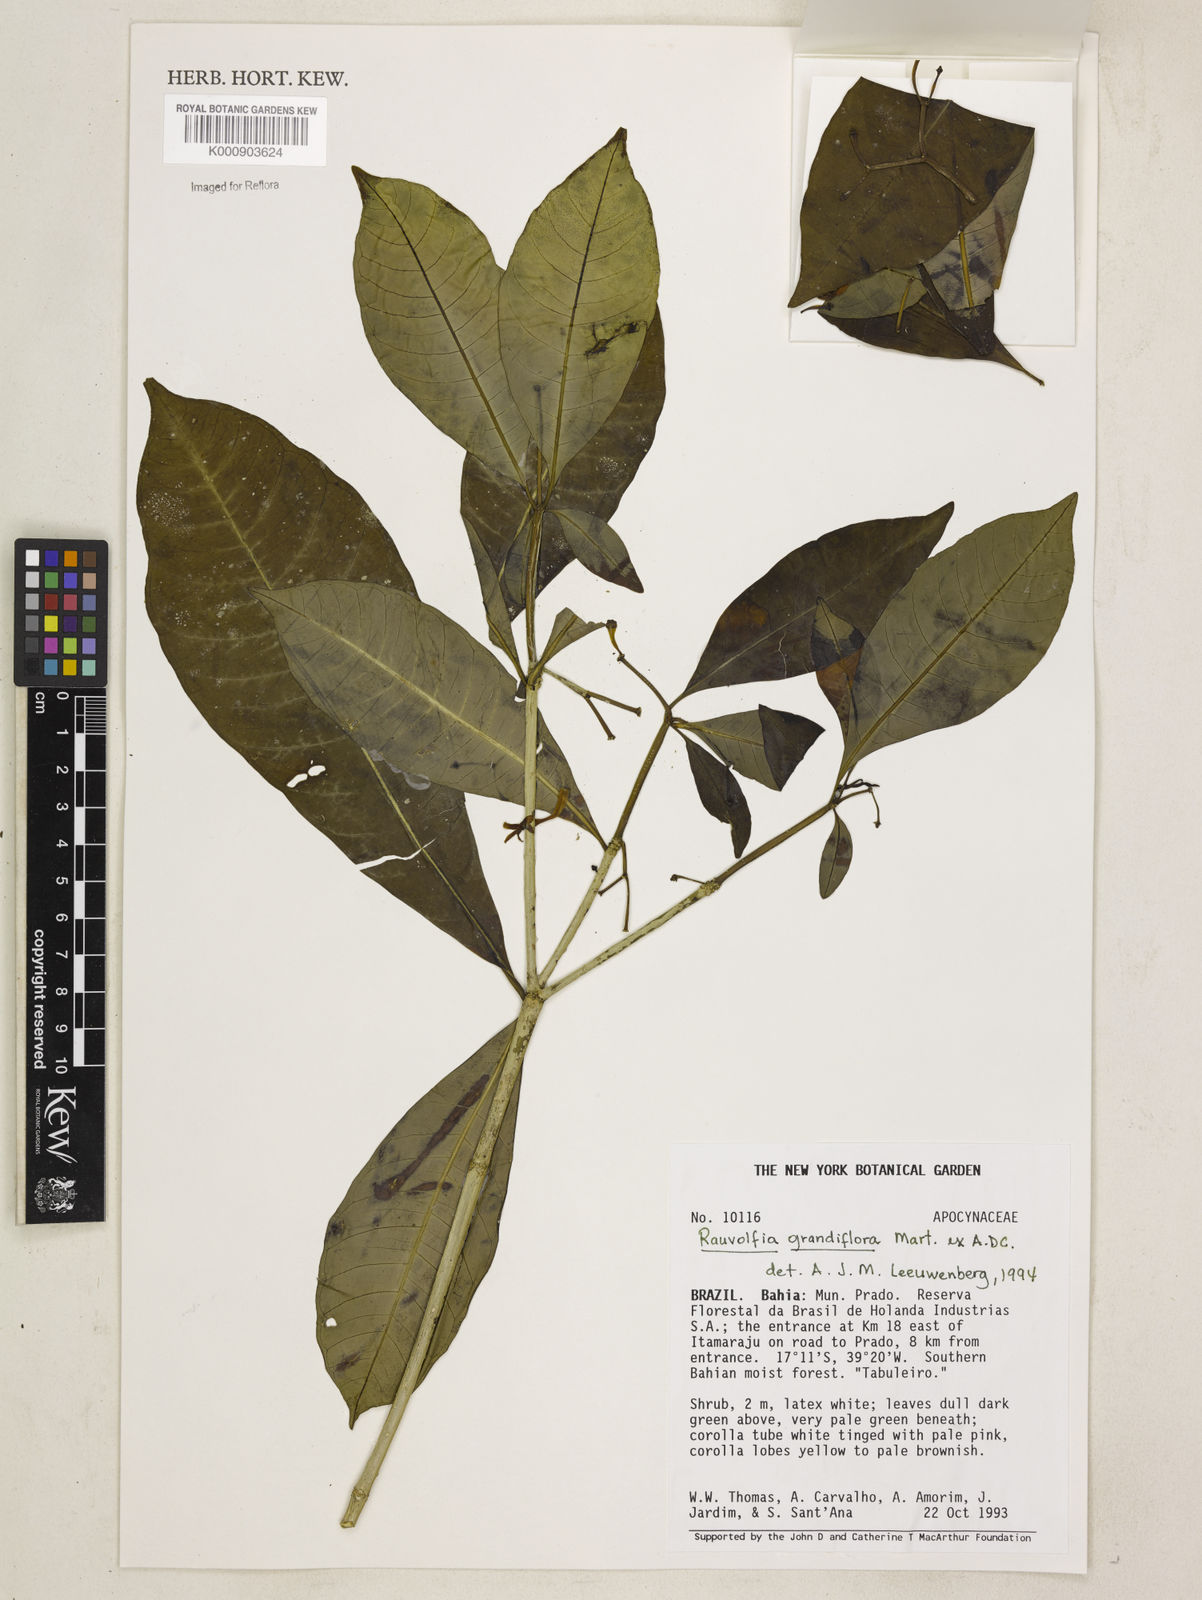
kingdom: Plantae
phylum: Tracheophyta
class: Magnoliopsida
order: Gentianales
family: Apocynaceae
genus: Rauvolfia
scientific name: Rauvolfia
